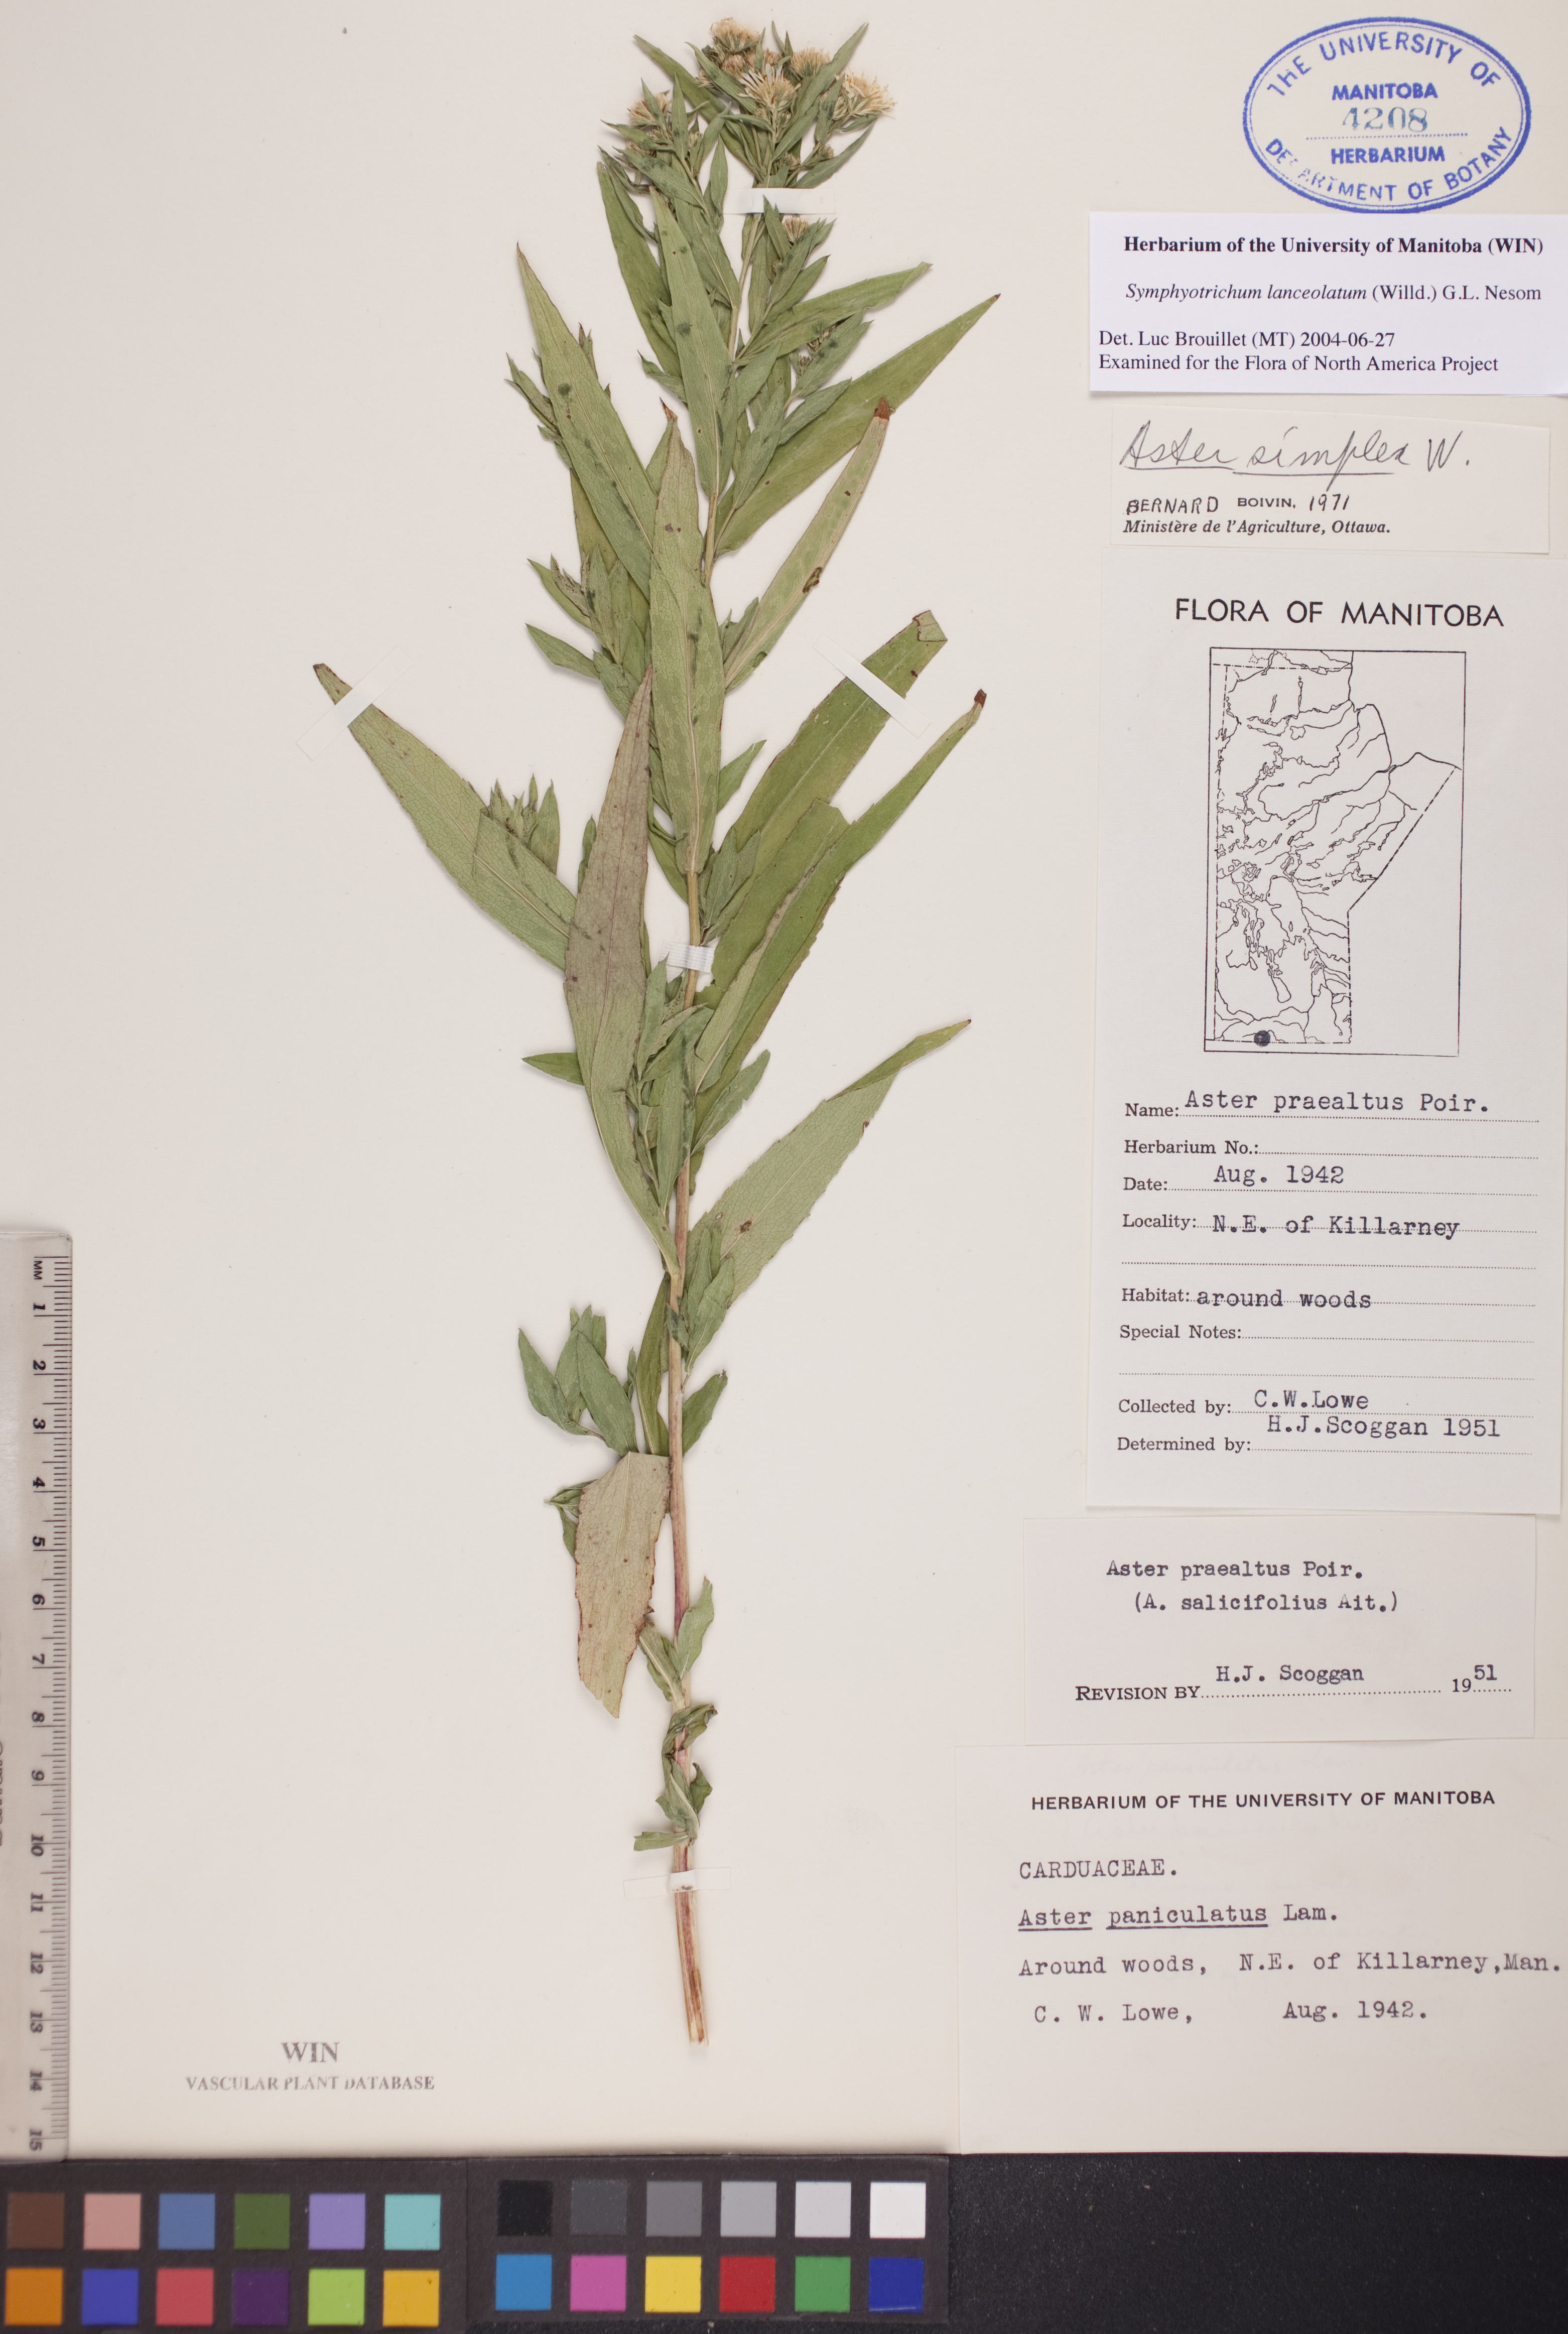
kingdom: Plantae
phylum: Tracheophyta
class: Magnoliopsida
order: Asterales
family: Asteraceae
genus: Symphyotrichum
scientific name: Symphyotrichum lanceolatum
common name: Panicled aster
